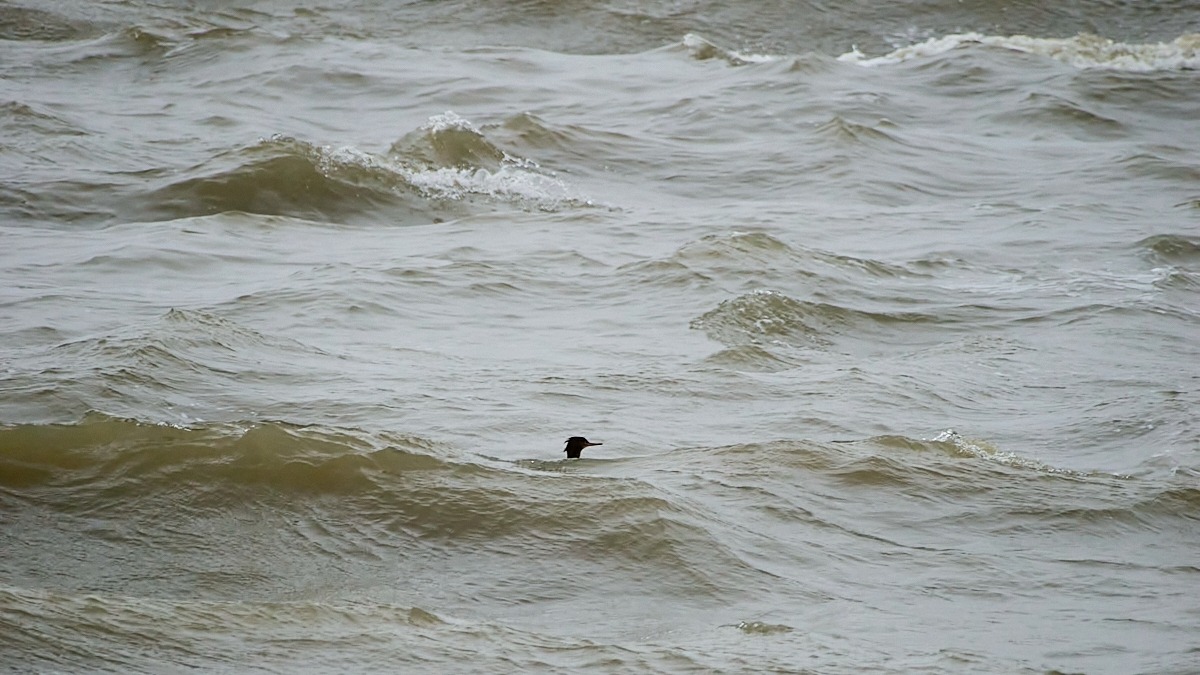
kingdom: Animalia
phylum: Chordata
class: Aves
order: Anseriformes
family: Anatidae
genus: Mergus
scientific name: Mergus serrator
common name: Toppet skallesluger
